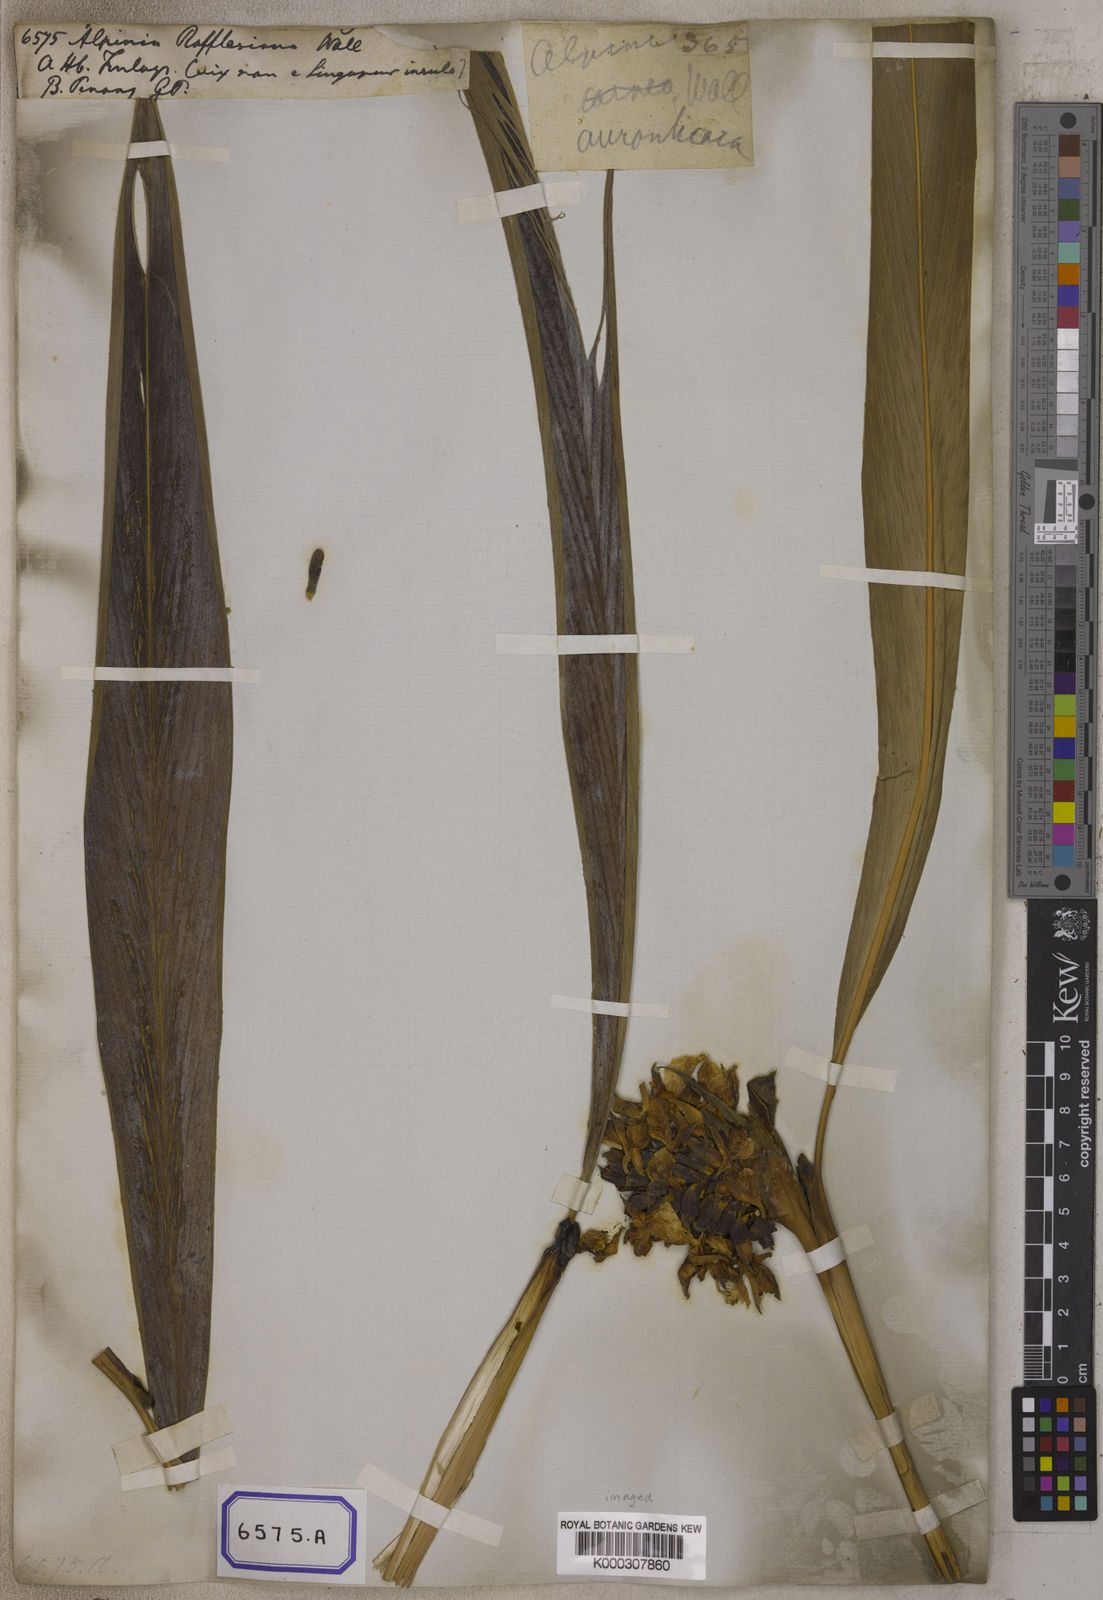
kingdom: Plantae
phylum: Tracheophyta
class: Liliopsida
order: Zingiberales
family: Zingiberaceae
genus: Alpinia
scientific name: Alpinia
